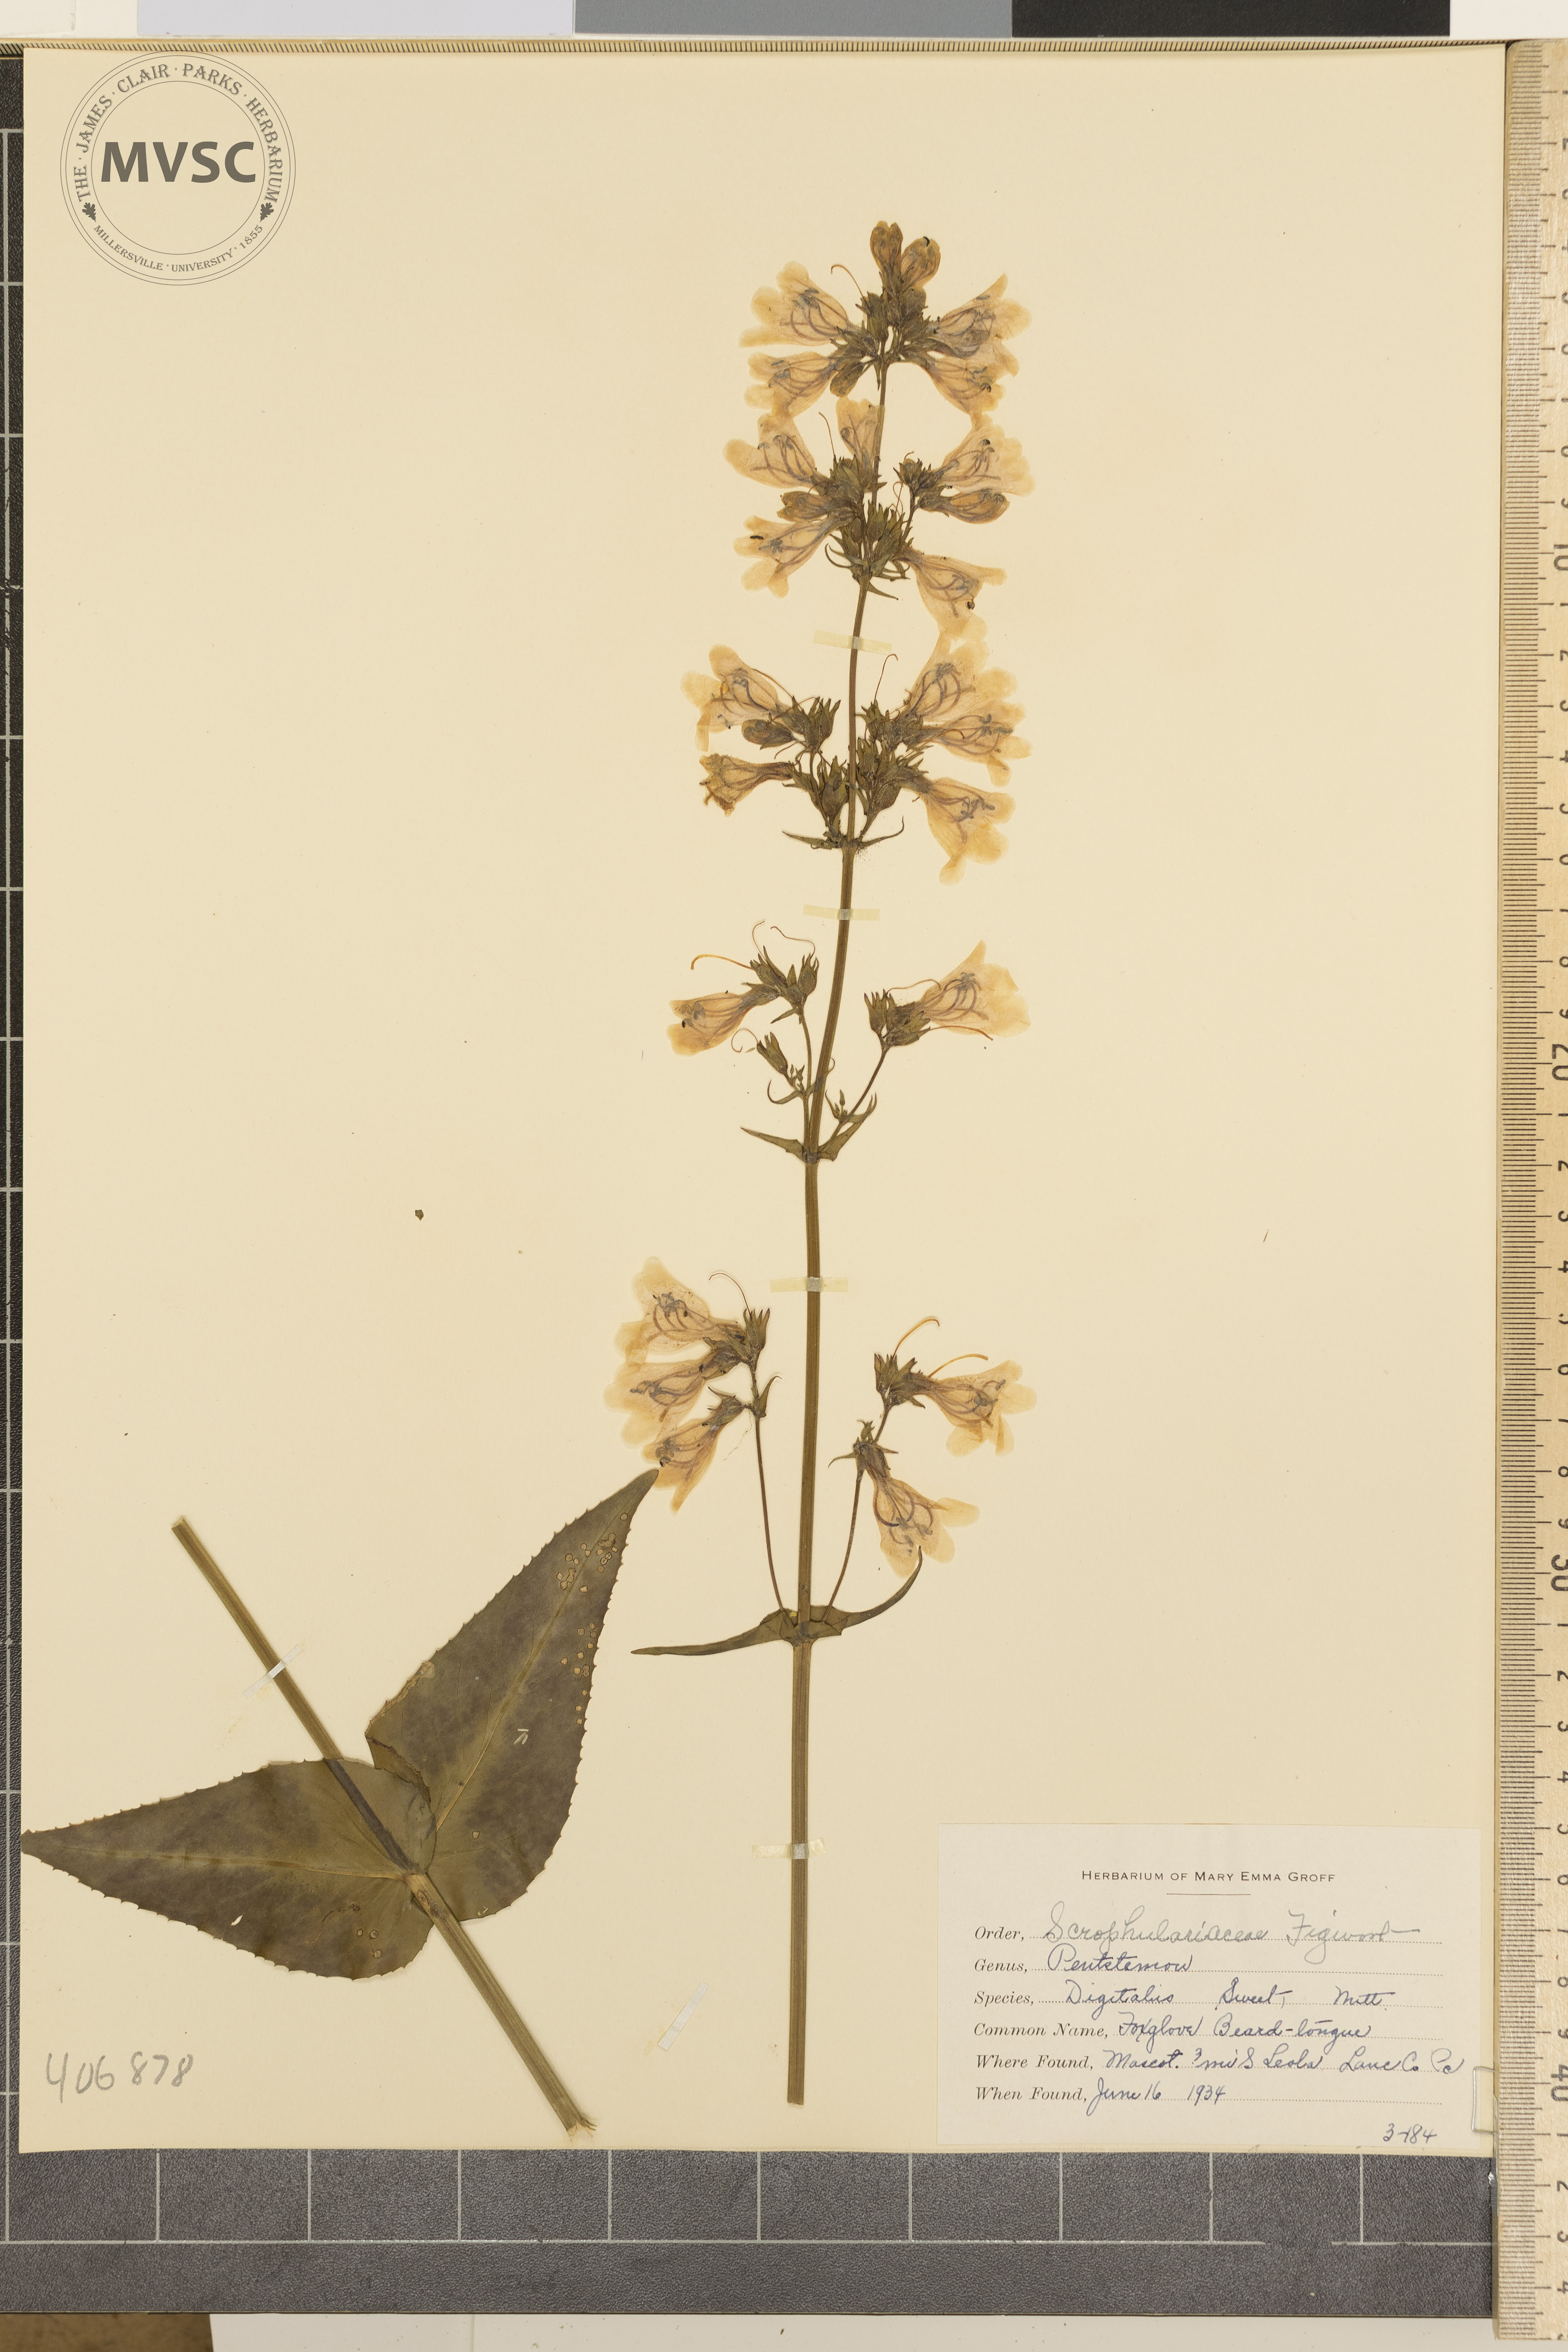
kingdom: Plantae
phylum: Tracheophyta
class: Magnoliopsida
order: Lamiales
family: Plantaginaceae
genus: Penstemon
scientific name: Penstemon digitalis
